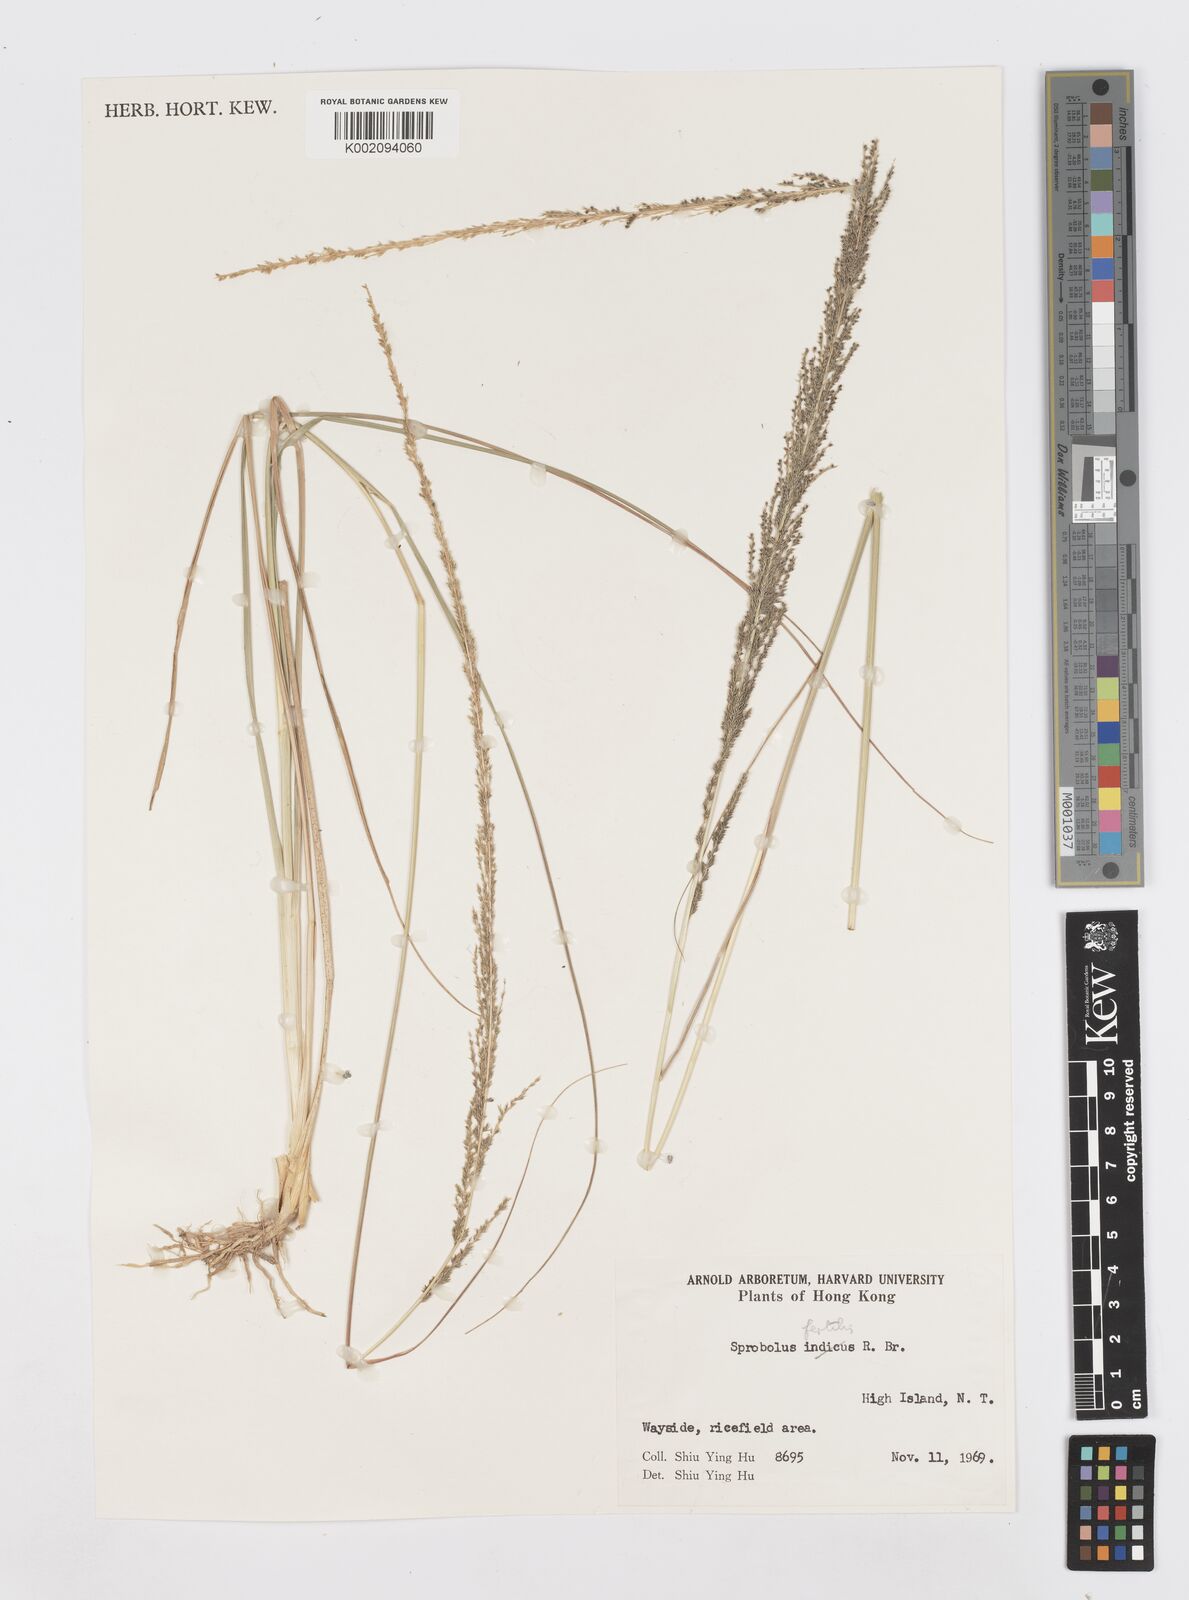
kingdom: Plantae
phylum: Tracheophyta
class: Liliopsida
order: Poales
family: Poaceae
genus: Sporobolus
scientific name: Sporobolus fertilis
